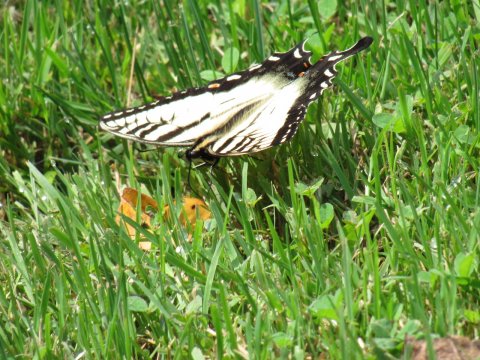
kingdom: Animalia
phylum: Arthropoda
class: Insecta
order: Lepidoptera
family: Papilionidae
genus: Pterourus
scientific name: Pterourus
